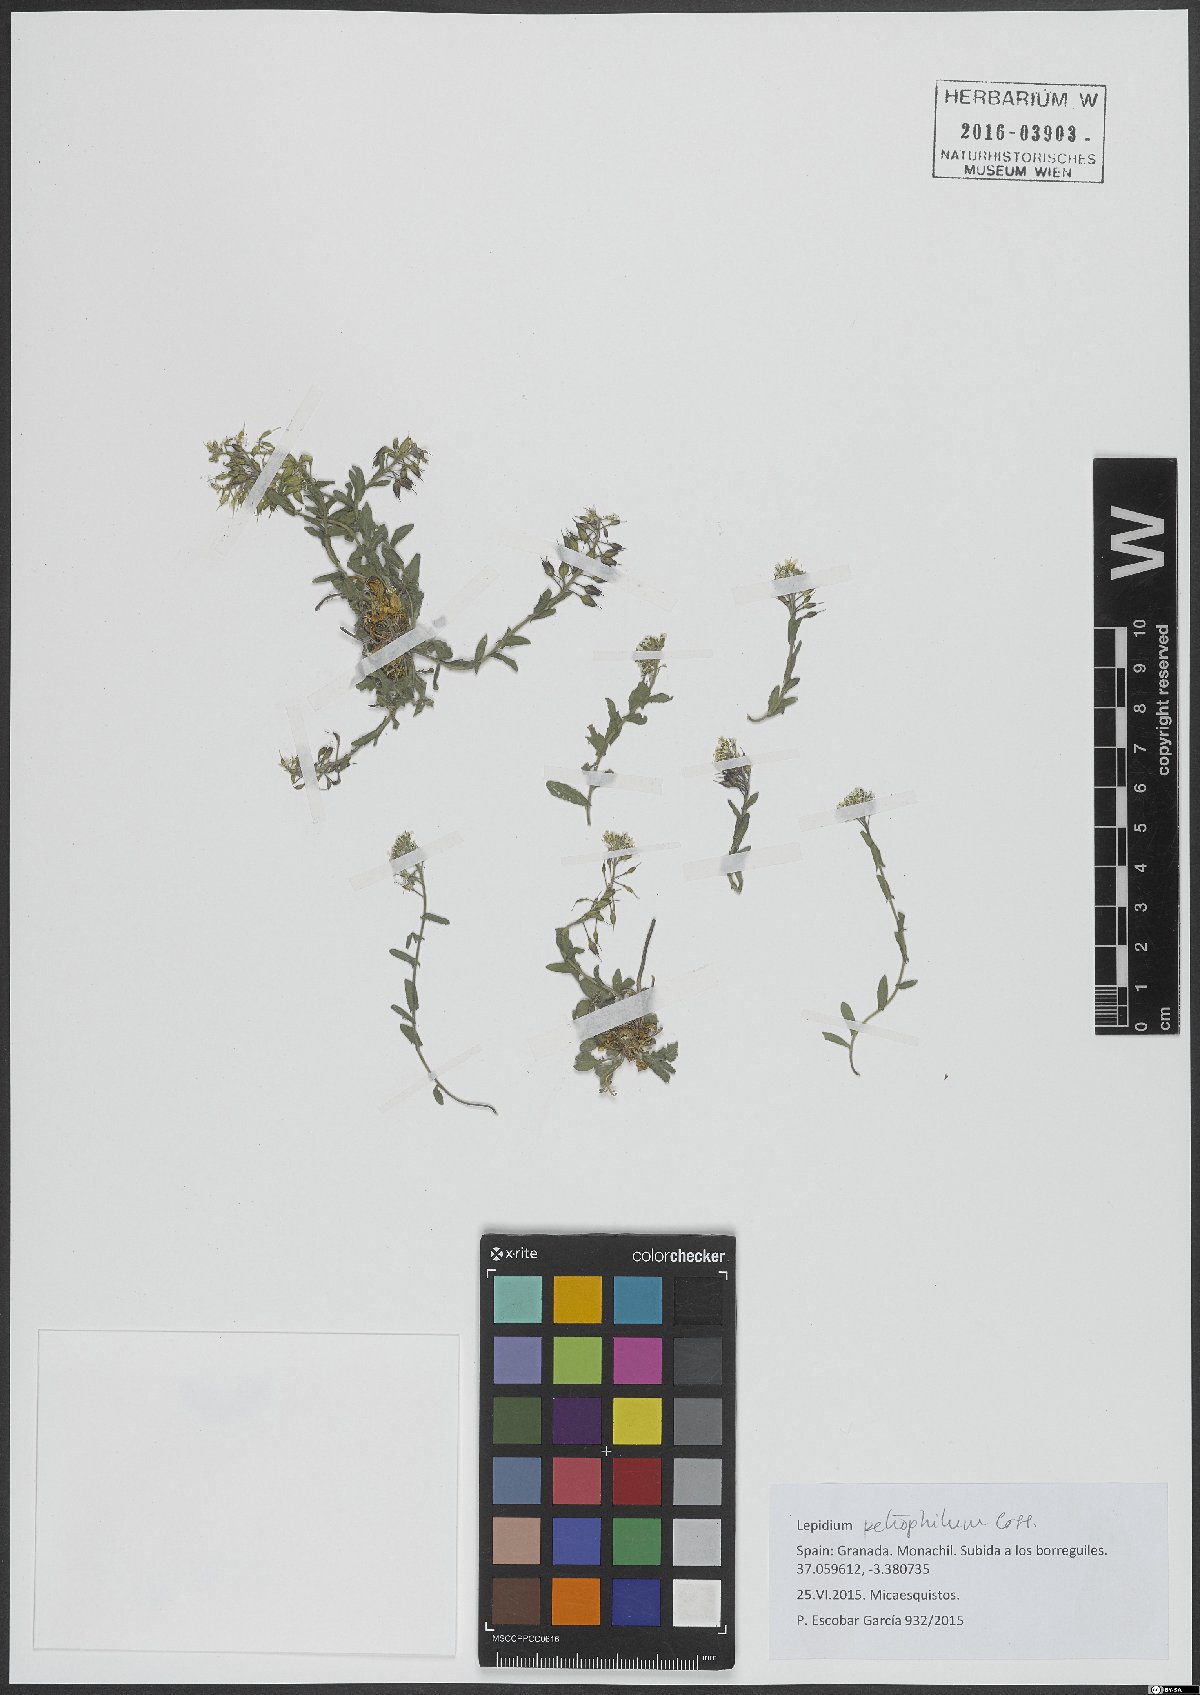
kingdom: Plantae
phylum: Tracheophyta
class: Magnoliopsida
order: Brassicales
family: Brassicaceae
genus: Lepidium
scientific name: Lepidium hirtum
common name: Mediterranean pepperweed
